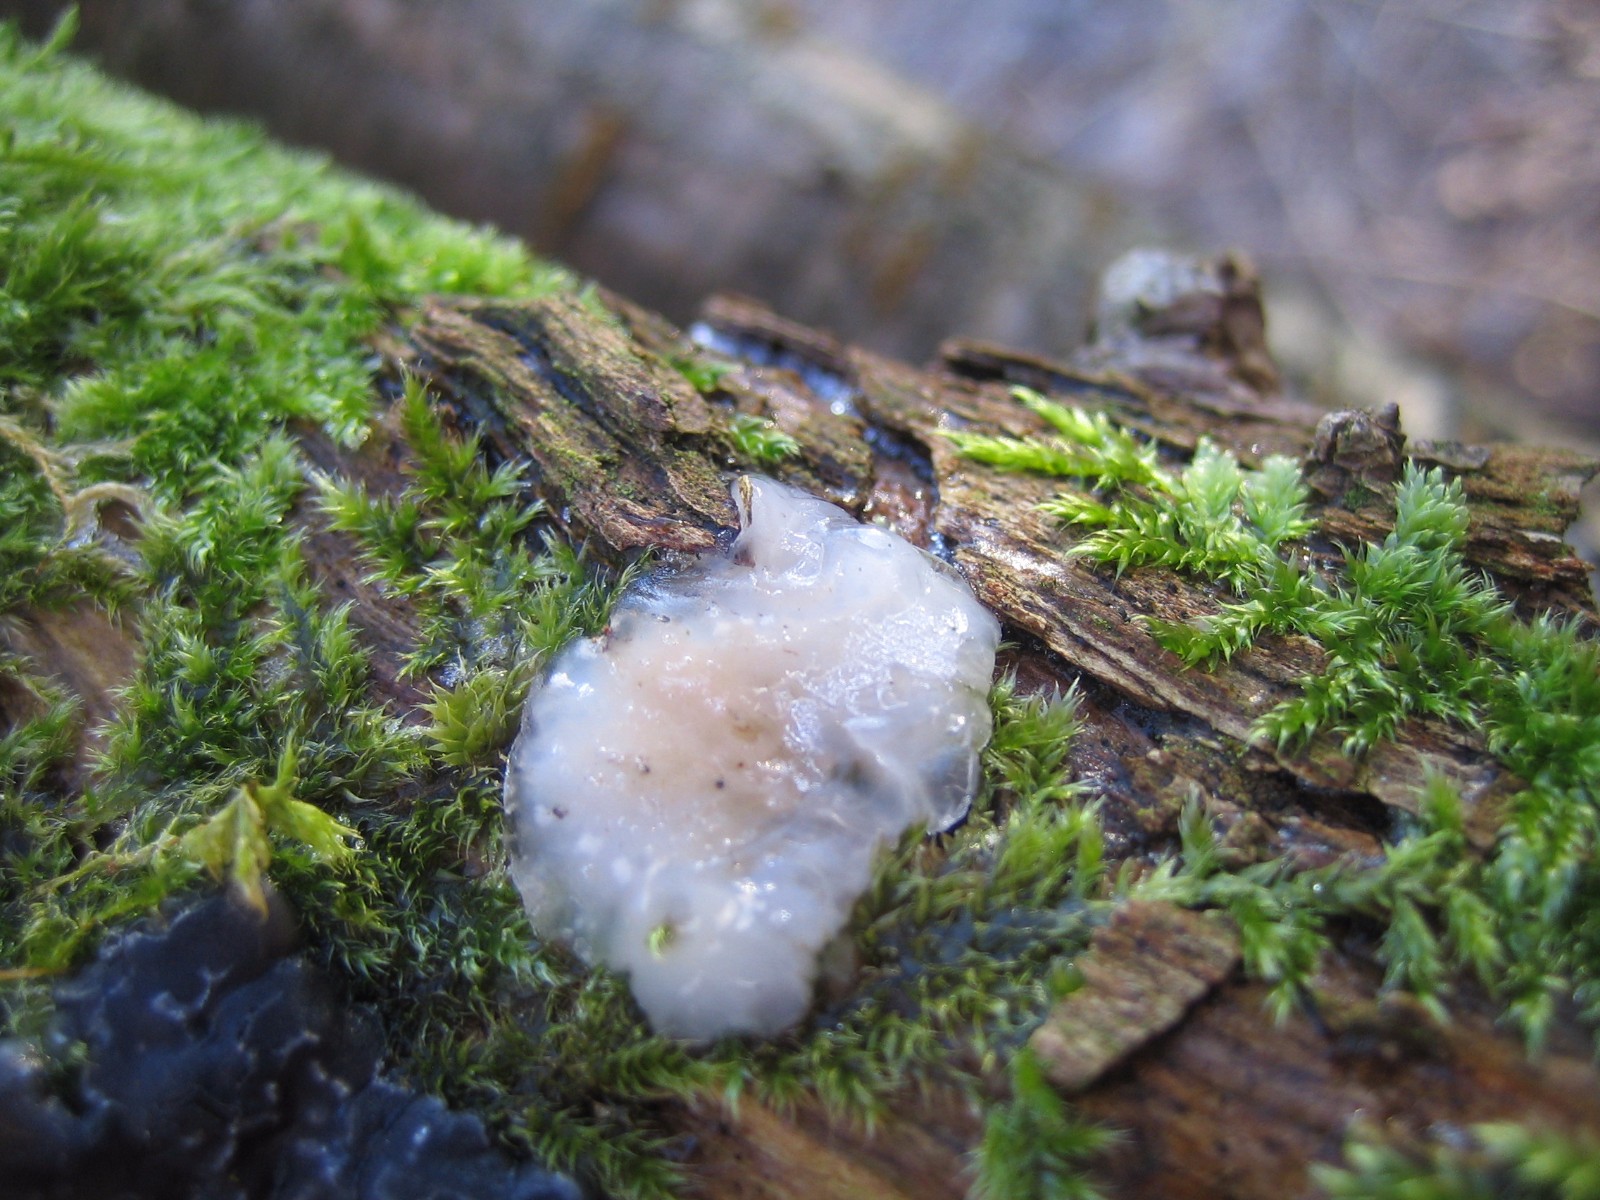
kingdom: Fungi
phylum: Basidiomycota
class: Agaricomycetes
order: Auriculariales
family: Hyaloriaceae
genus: Myxarium
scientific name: Myxarium nucleatum
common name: klar bævretop
